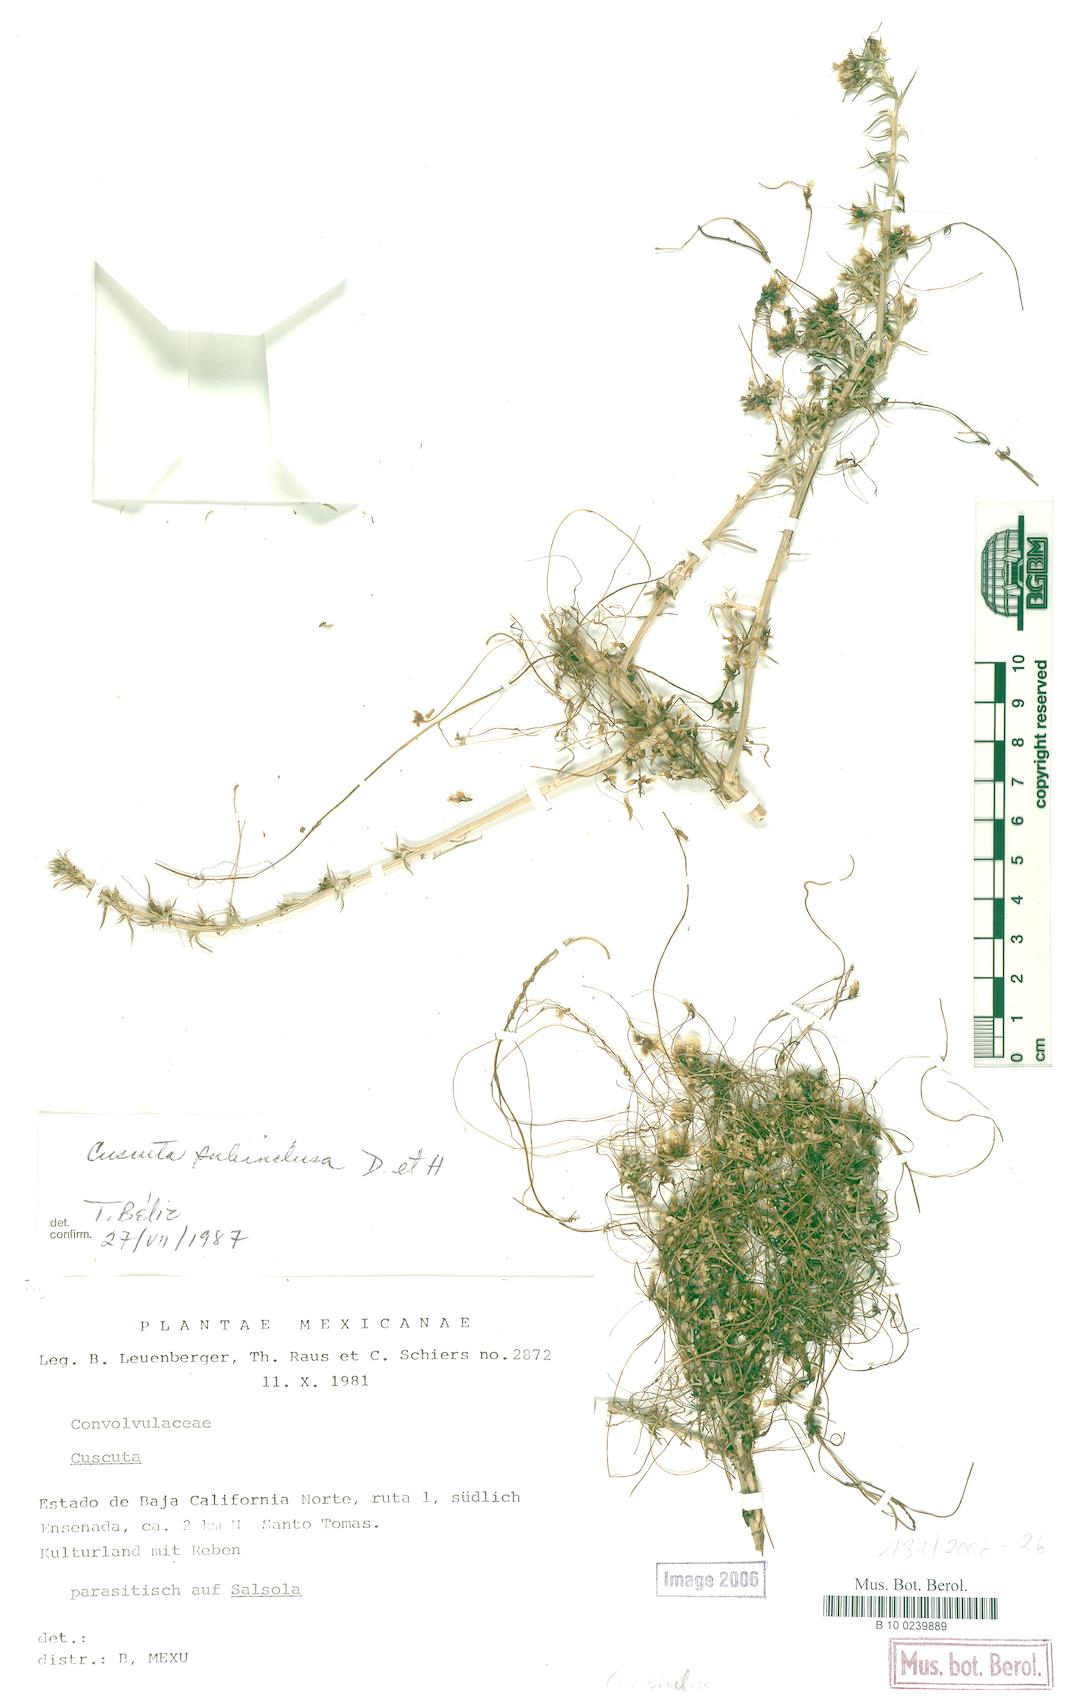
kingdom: Plantae
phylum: Tracheophyta
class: Magnoliopsida
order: Solanales
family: Convolvulaceae
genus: Cuscuta
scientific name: Cuscuta subinclusa
